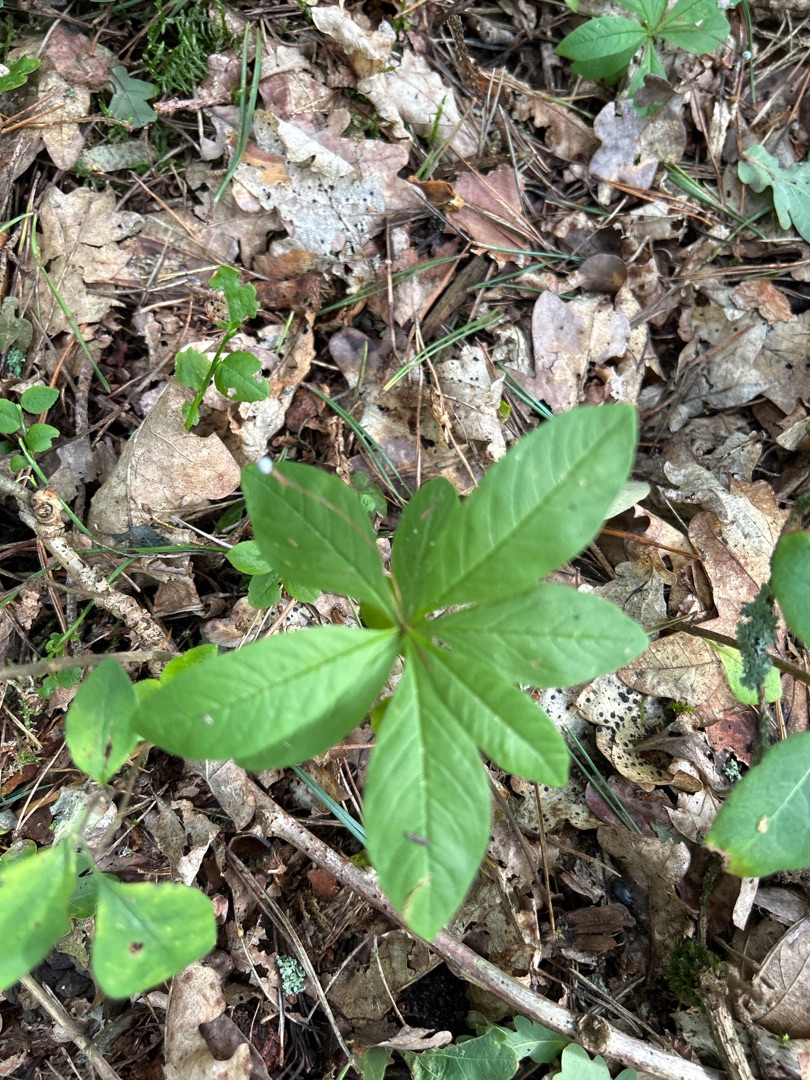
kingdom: Plantae
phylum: Tracheophyta
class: Magnoliopsida
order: Ericales
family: Primulaceae
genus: Lysimachia
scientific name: Lysimachia europaea
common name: Skovstjerne
